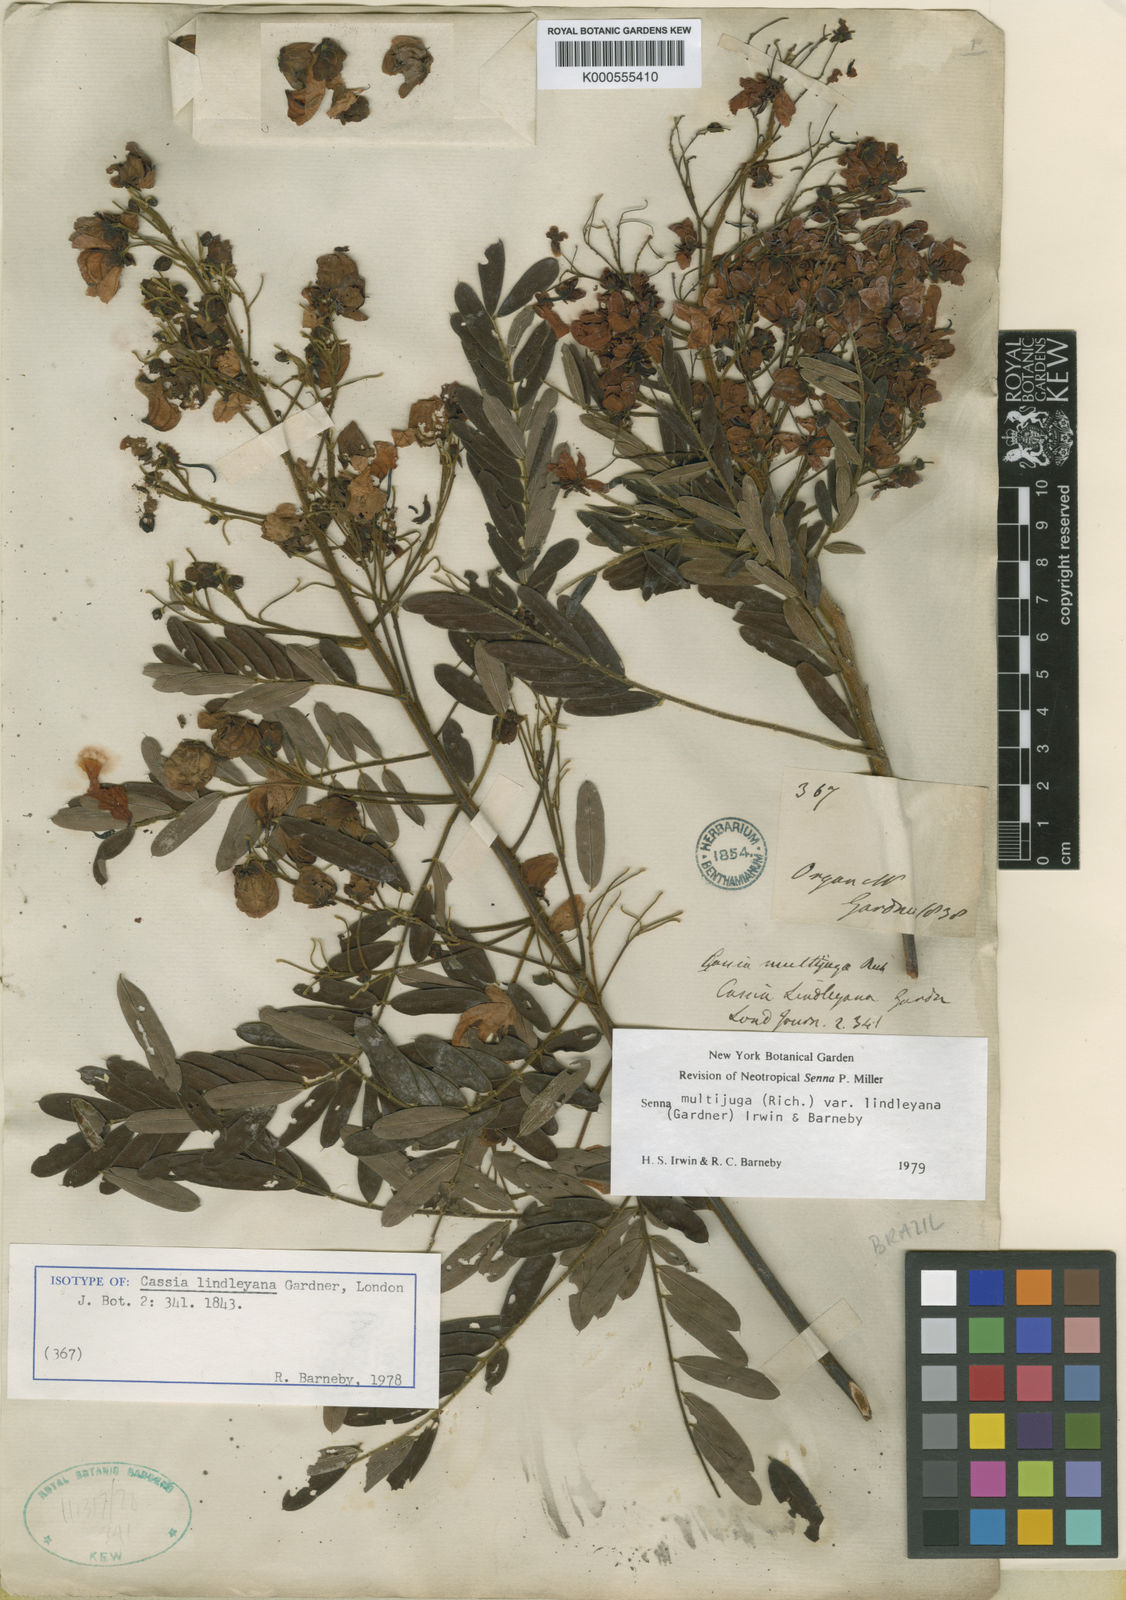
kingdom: Plantae
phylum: Tracheophyta
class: Magnoliopsida
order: Fabales
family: Fabaceae
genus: Senna
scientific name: Senna multijuga
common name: False sicklepod
